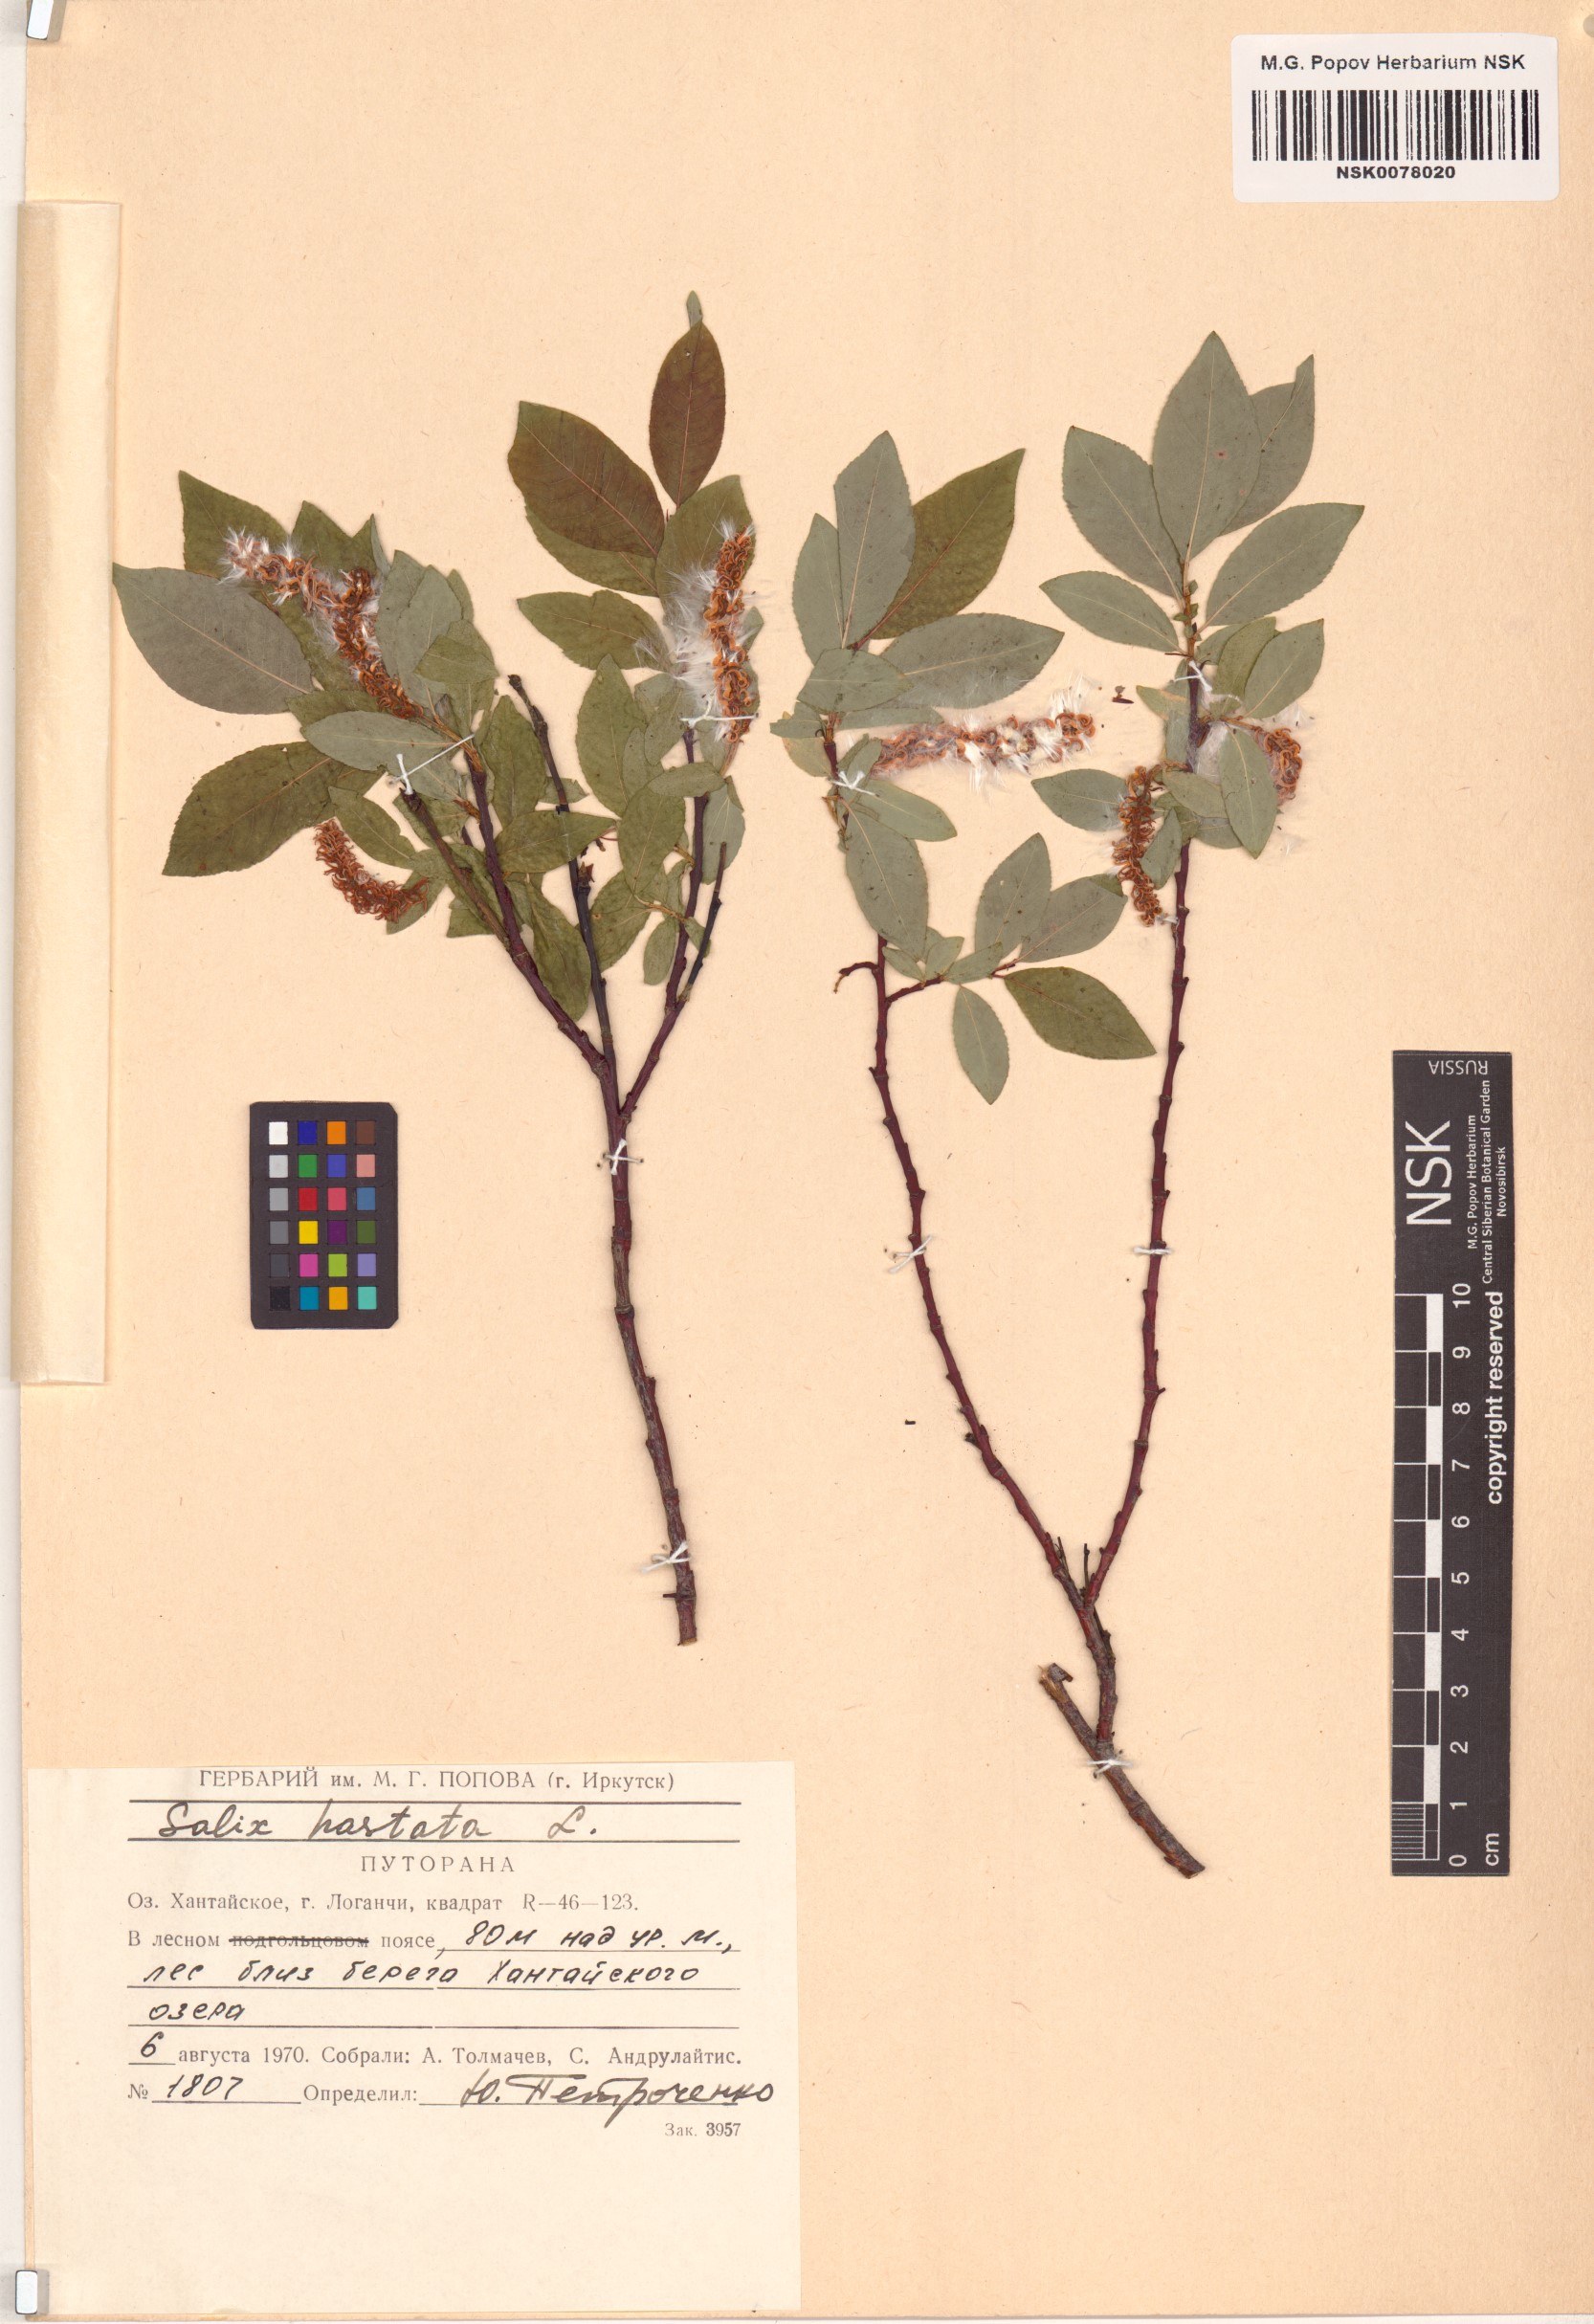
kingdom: Plantae
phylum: Tracheophyta
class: Magnoliopsida
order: Malpighiales
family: Salicaceae
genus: Salix
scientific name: Salix hastata
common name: Halberd willow
